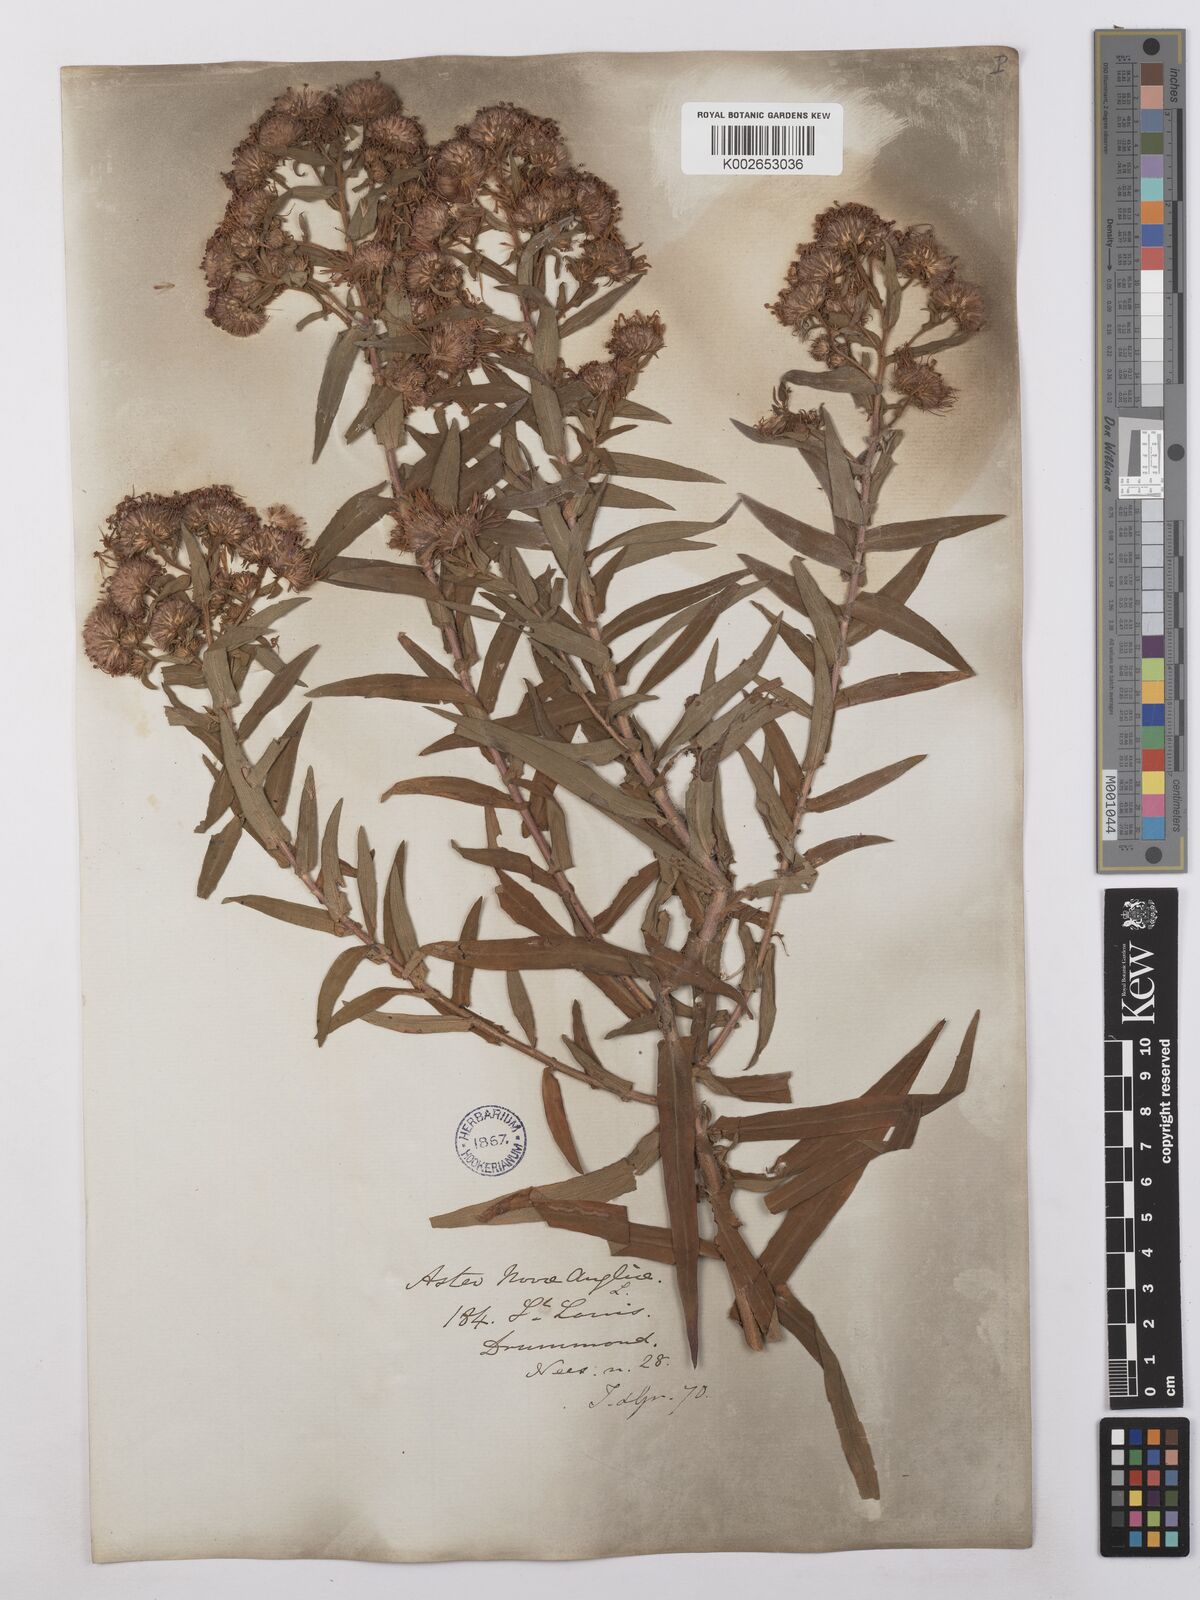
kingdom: Plantae
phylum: Tracheophyta
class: Magnoliopsida
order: Asterales
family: Asteraceae
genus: Symphyotrichum
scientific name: Symphyotrichum novae-angliae
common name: Michaelmas daisy
